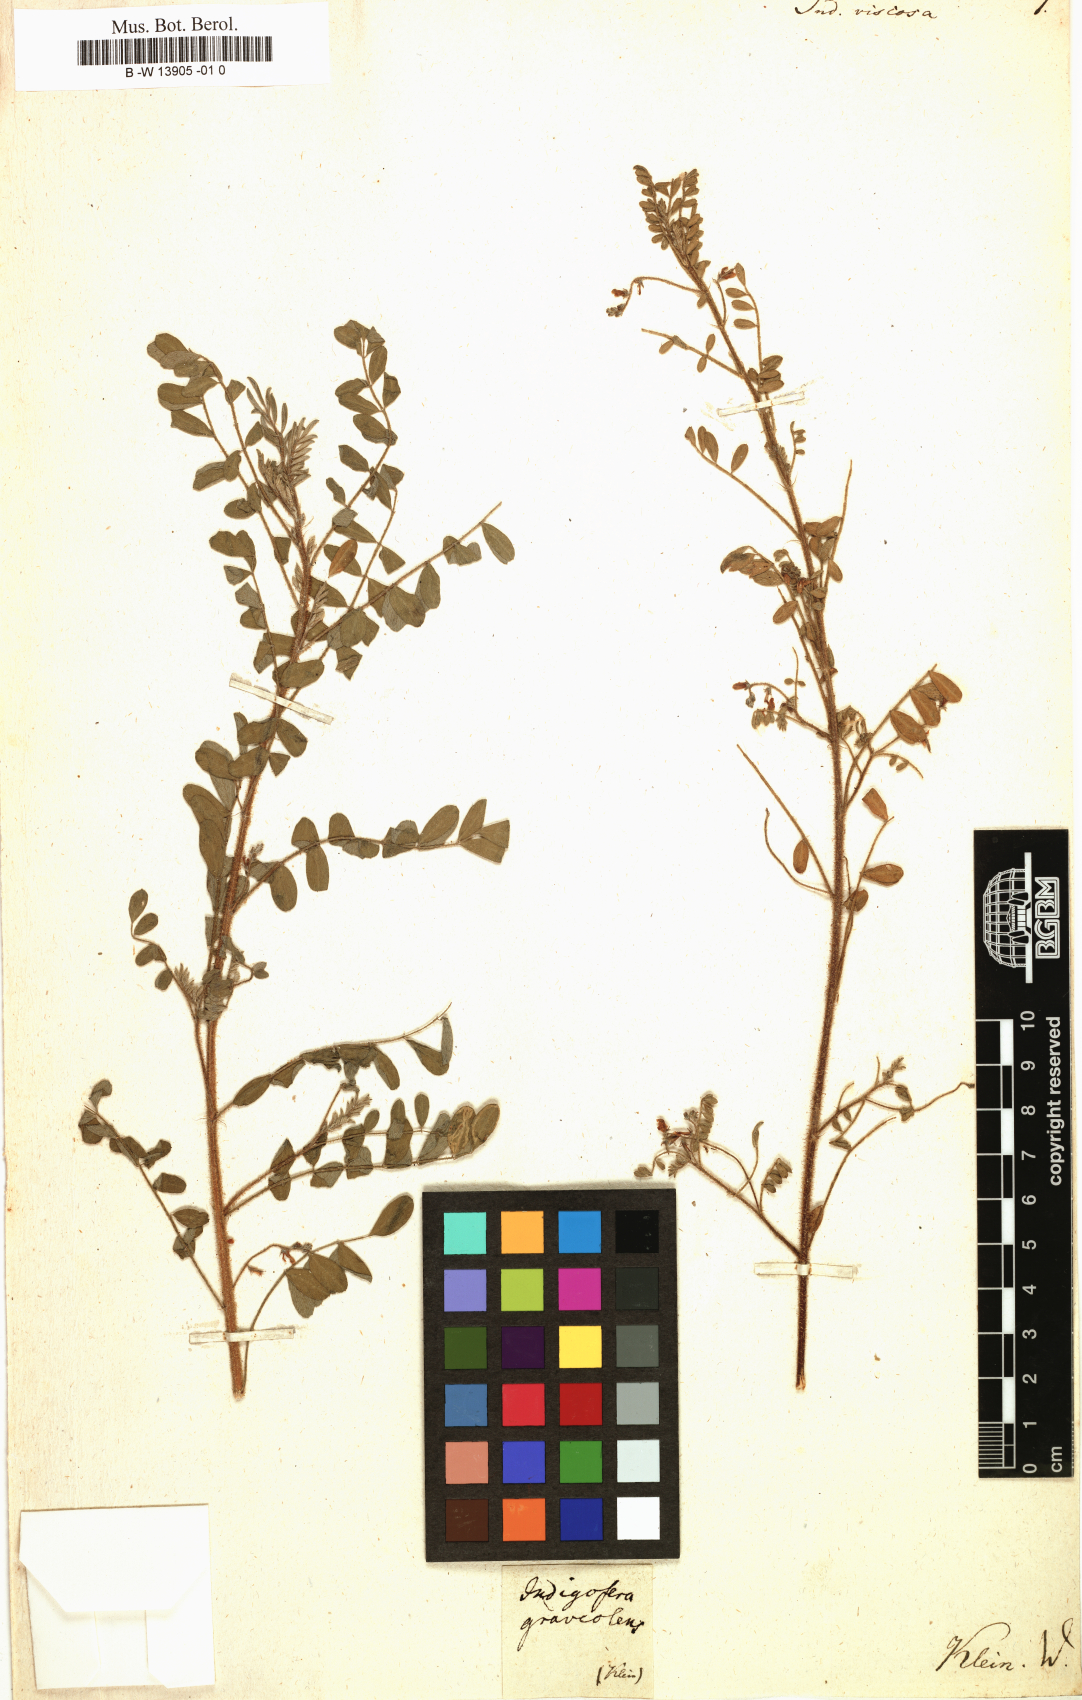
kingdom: Plantae
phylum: Tracheophyta
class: Magnoliopsida
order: Fabales
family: Fabaceae
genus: Indigofera
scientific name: Indigofera viscosa
